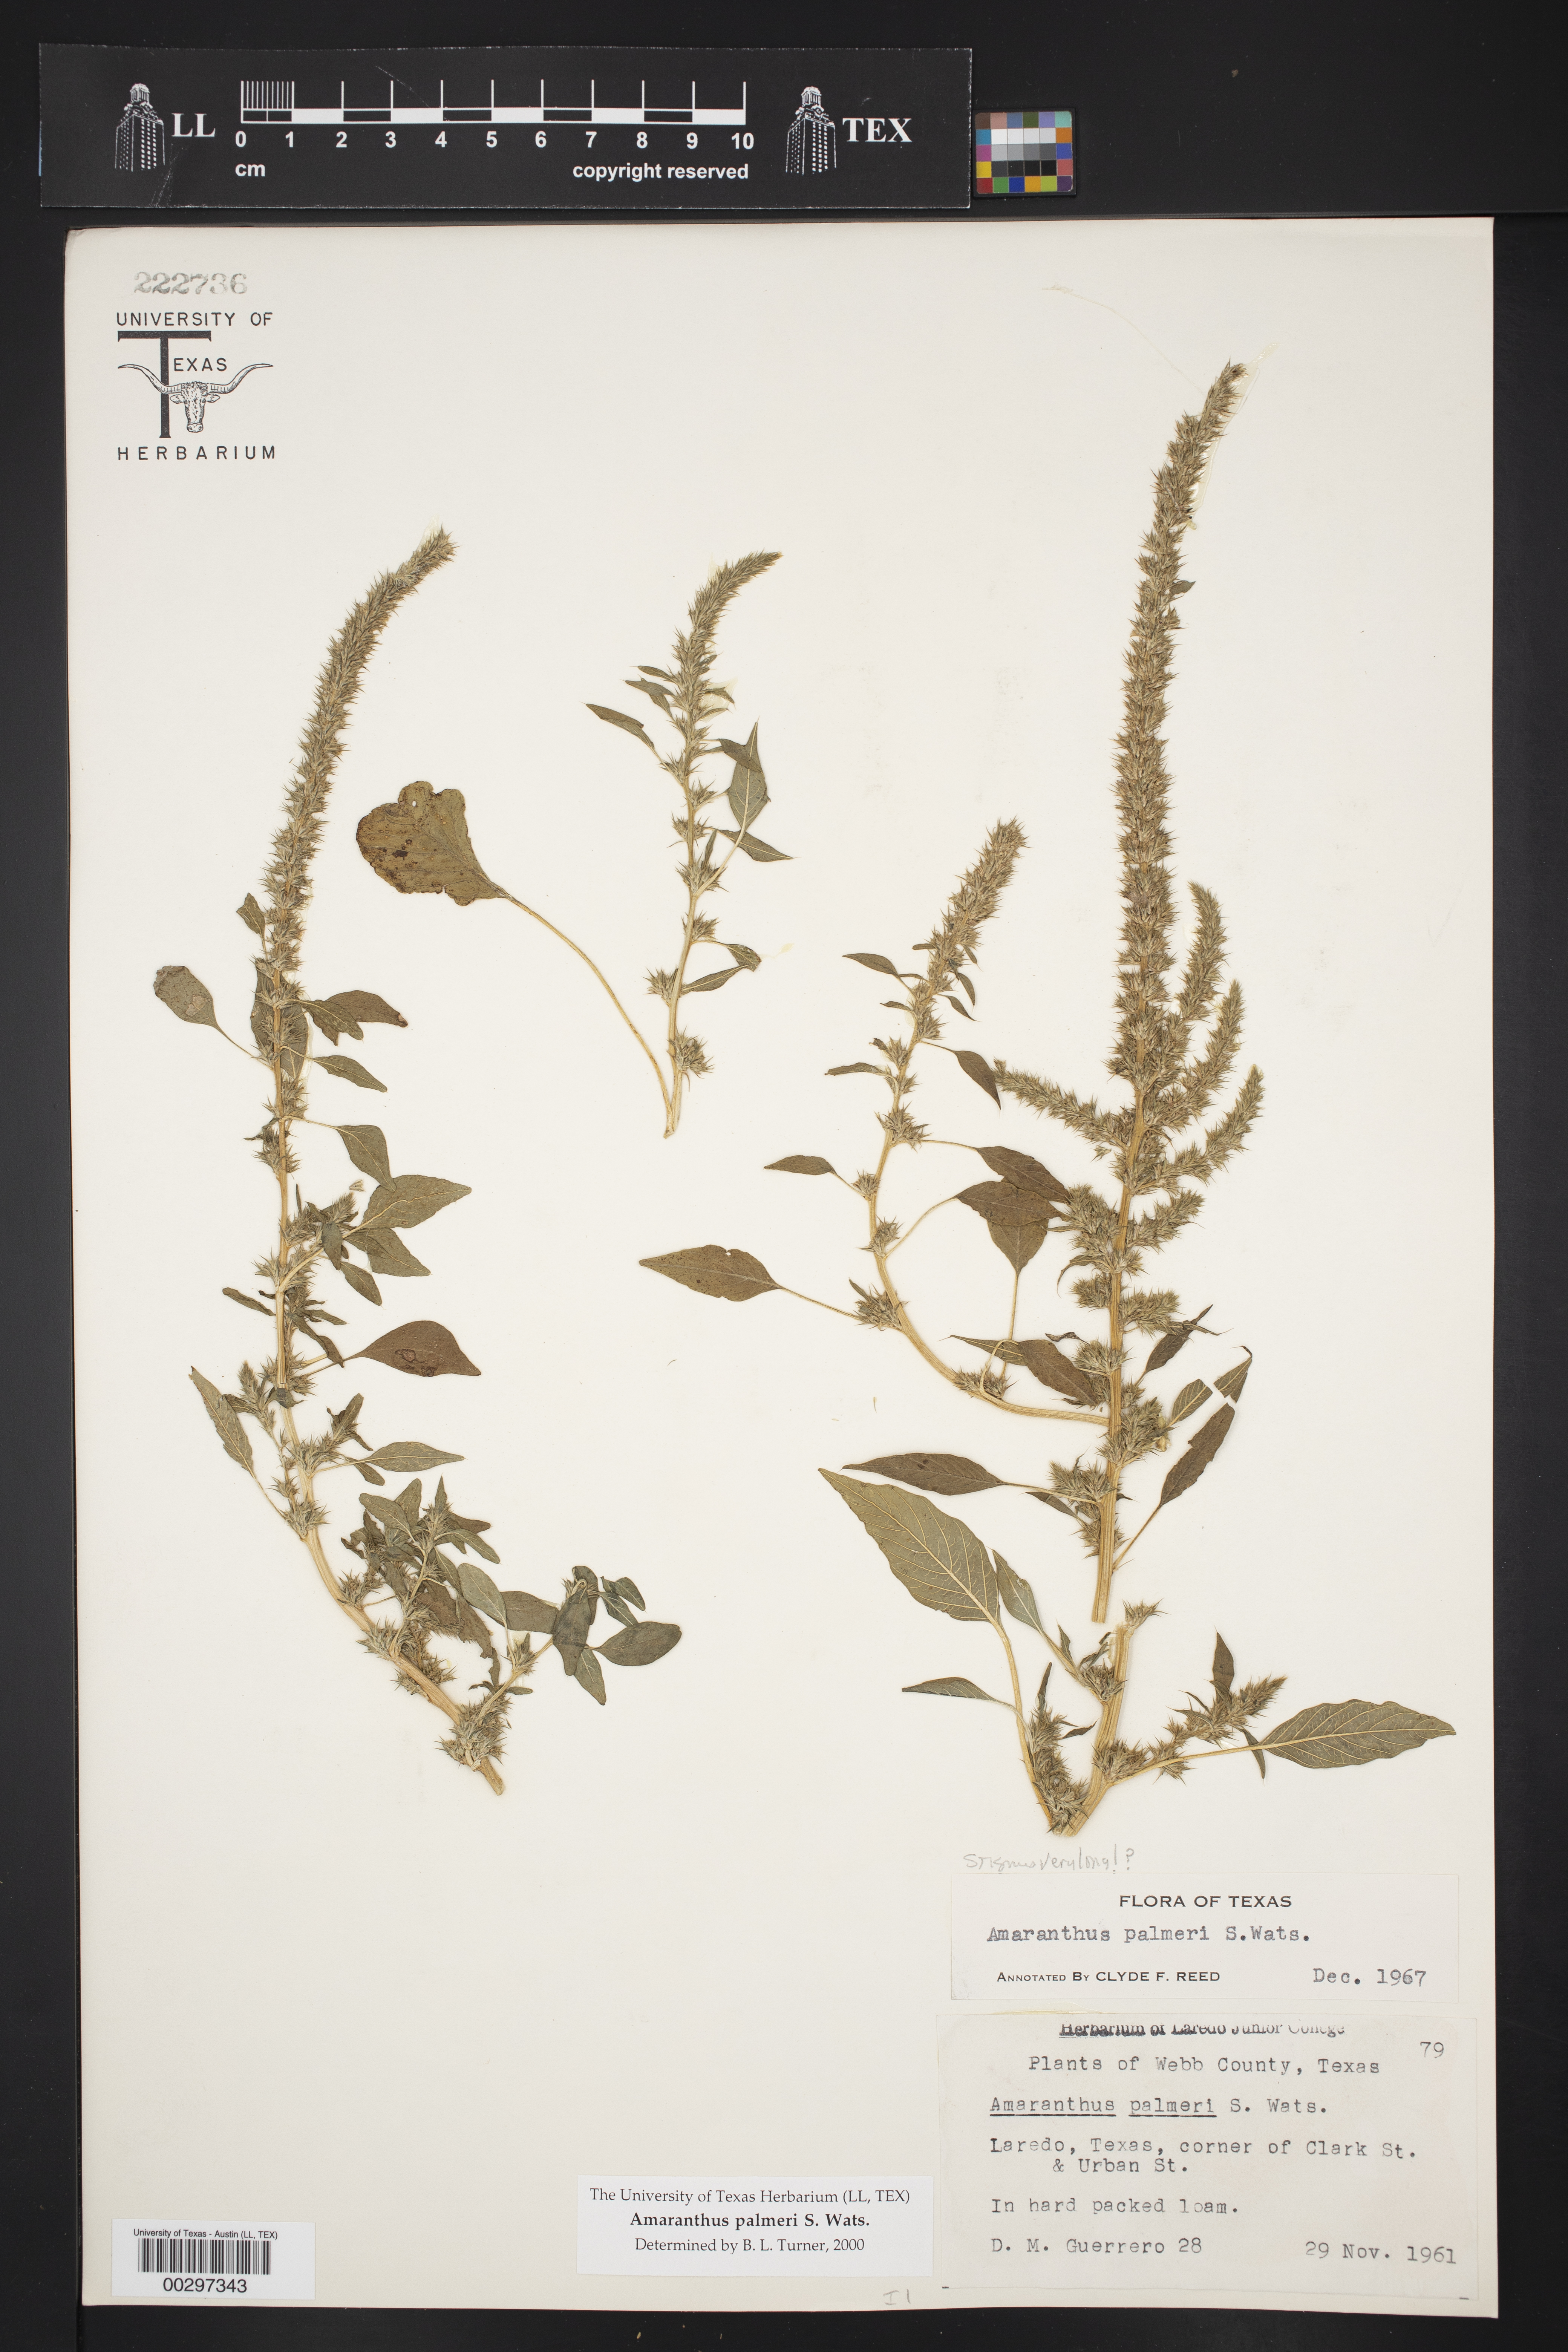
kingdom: Plantae
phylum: Tracheophyta
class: Magnoliopsida
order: Caryophyllales
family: Amaranthaceae
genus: Amaranthus
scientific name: Amaranthus palmeri
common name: Dioecious amaranth
